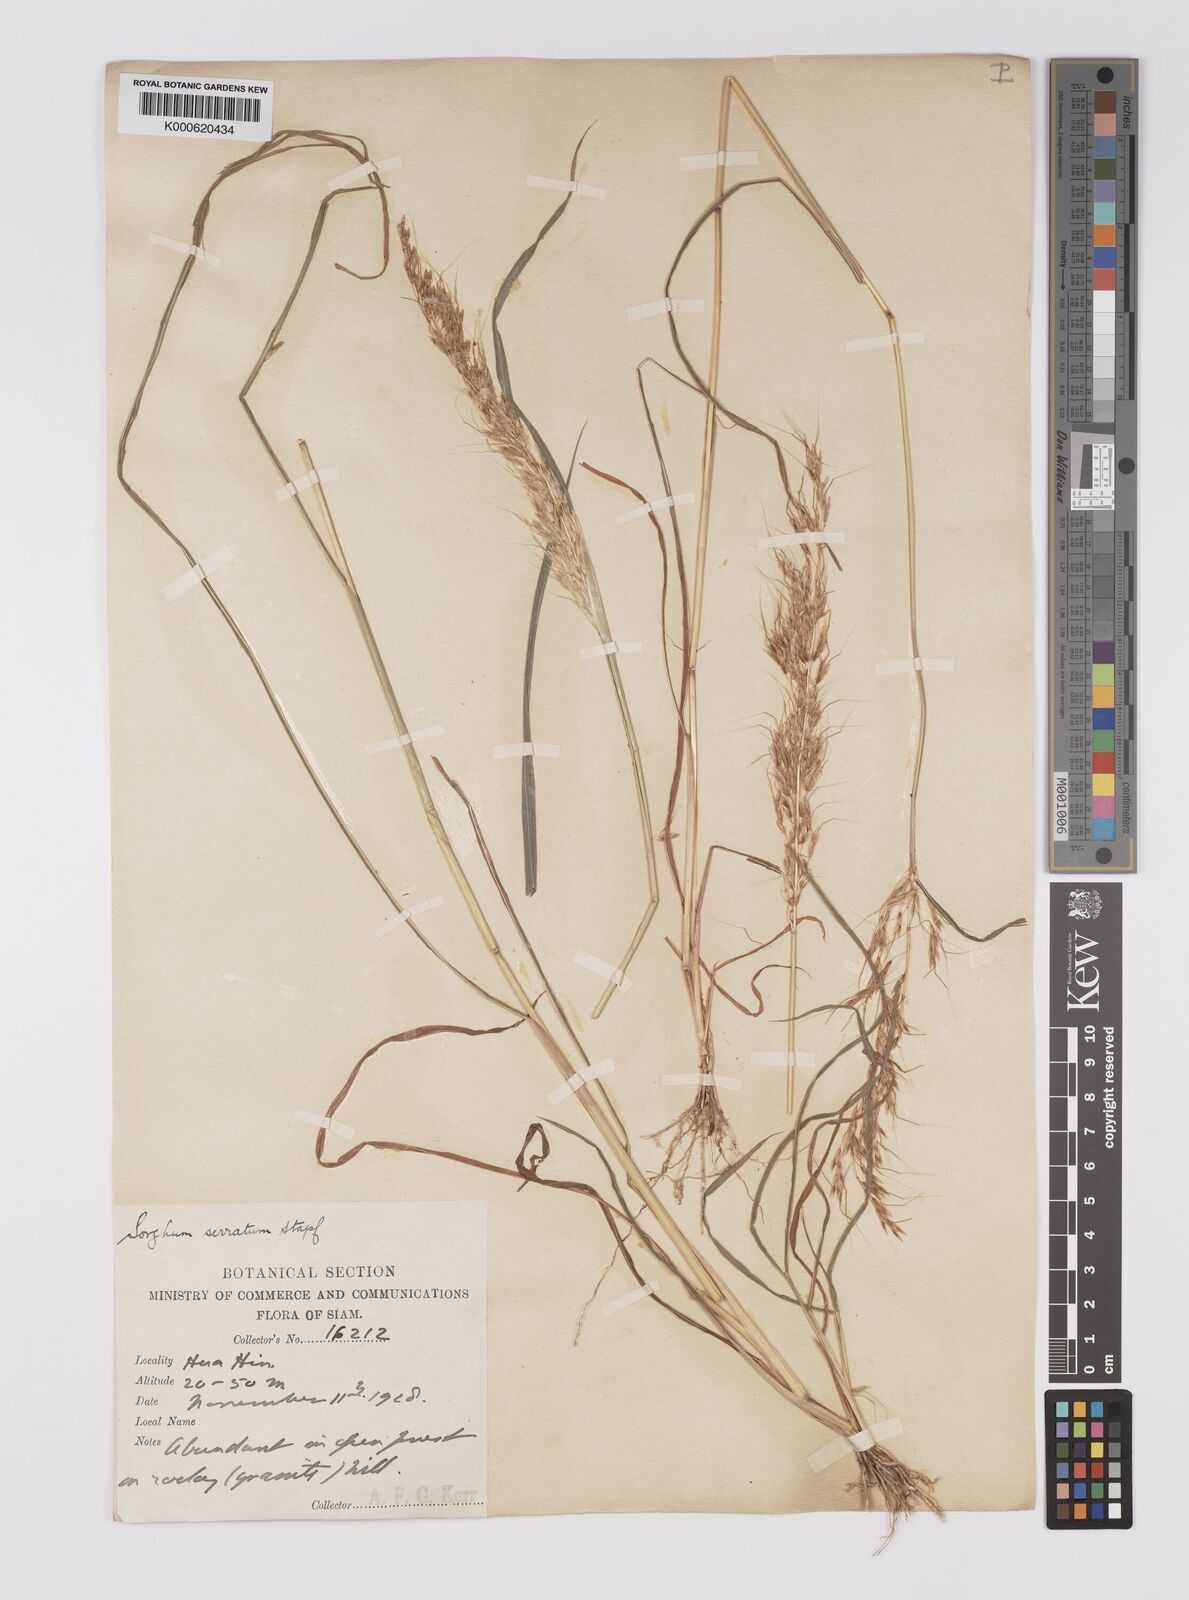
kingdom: Plantae
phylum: Tracheophyta
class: Liliopsida
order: Poales
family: Poaceae
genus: Sorghum
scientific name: Sorghum burmahicum
